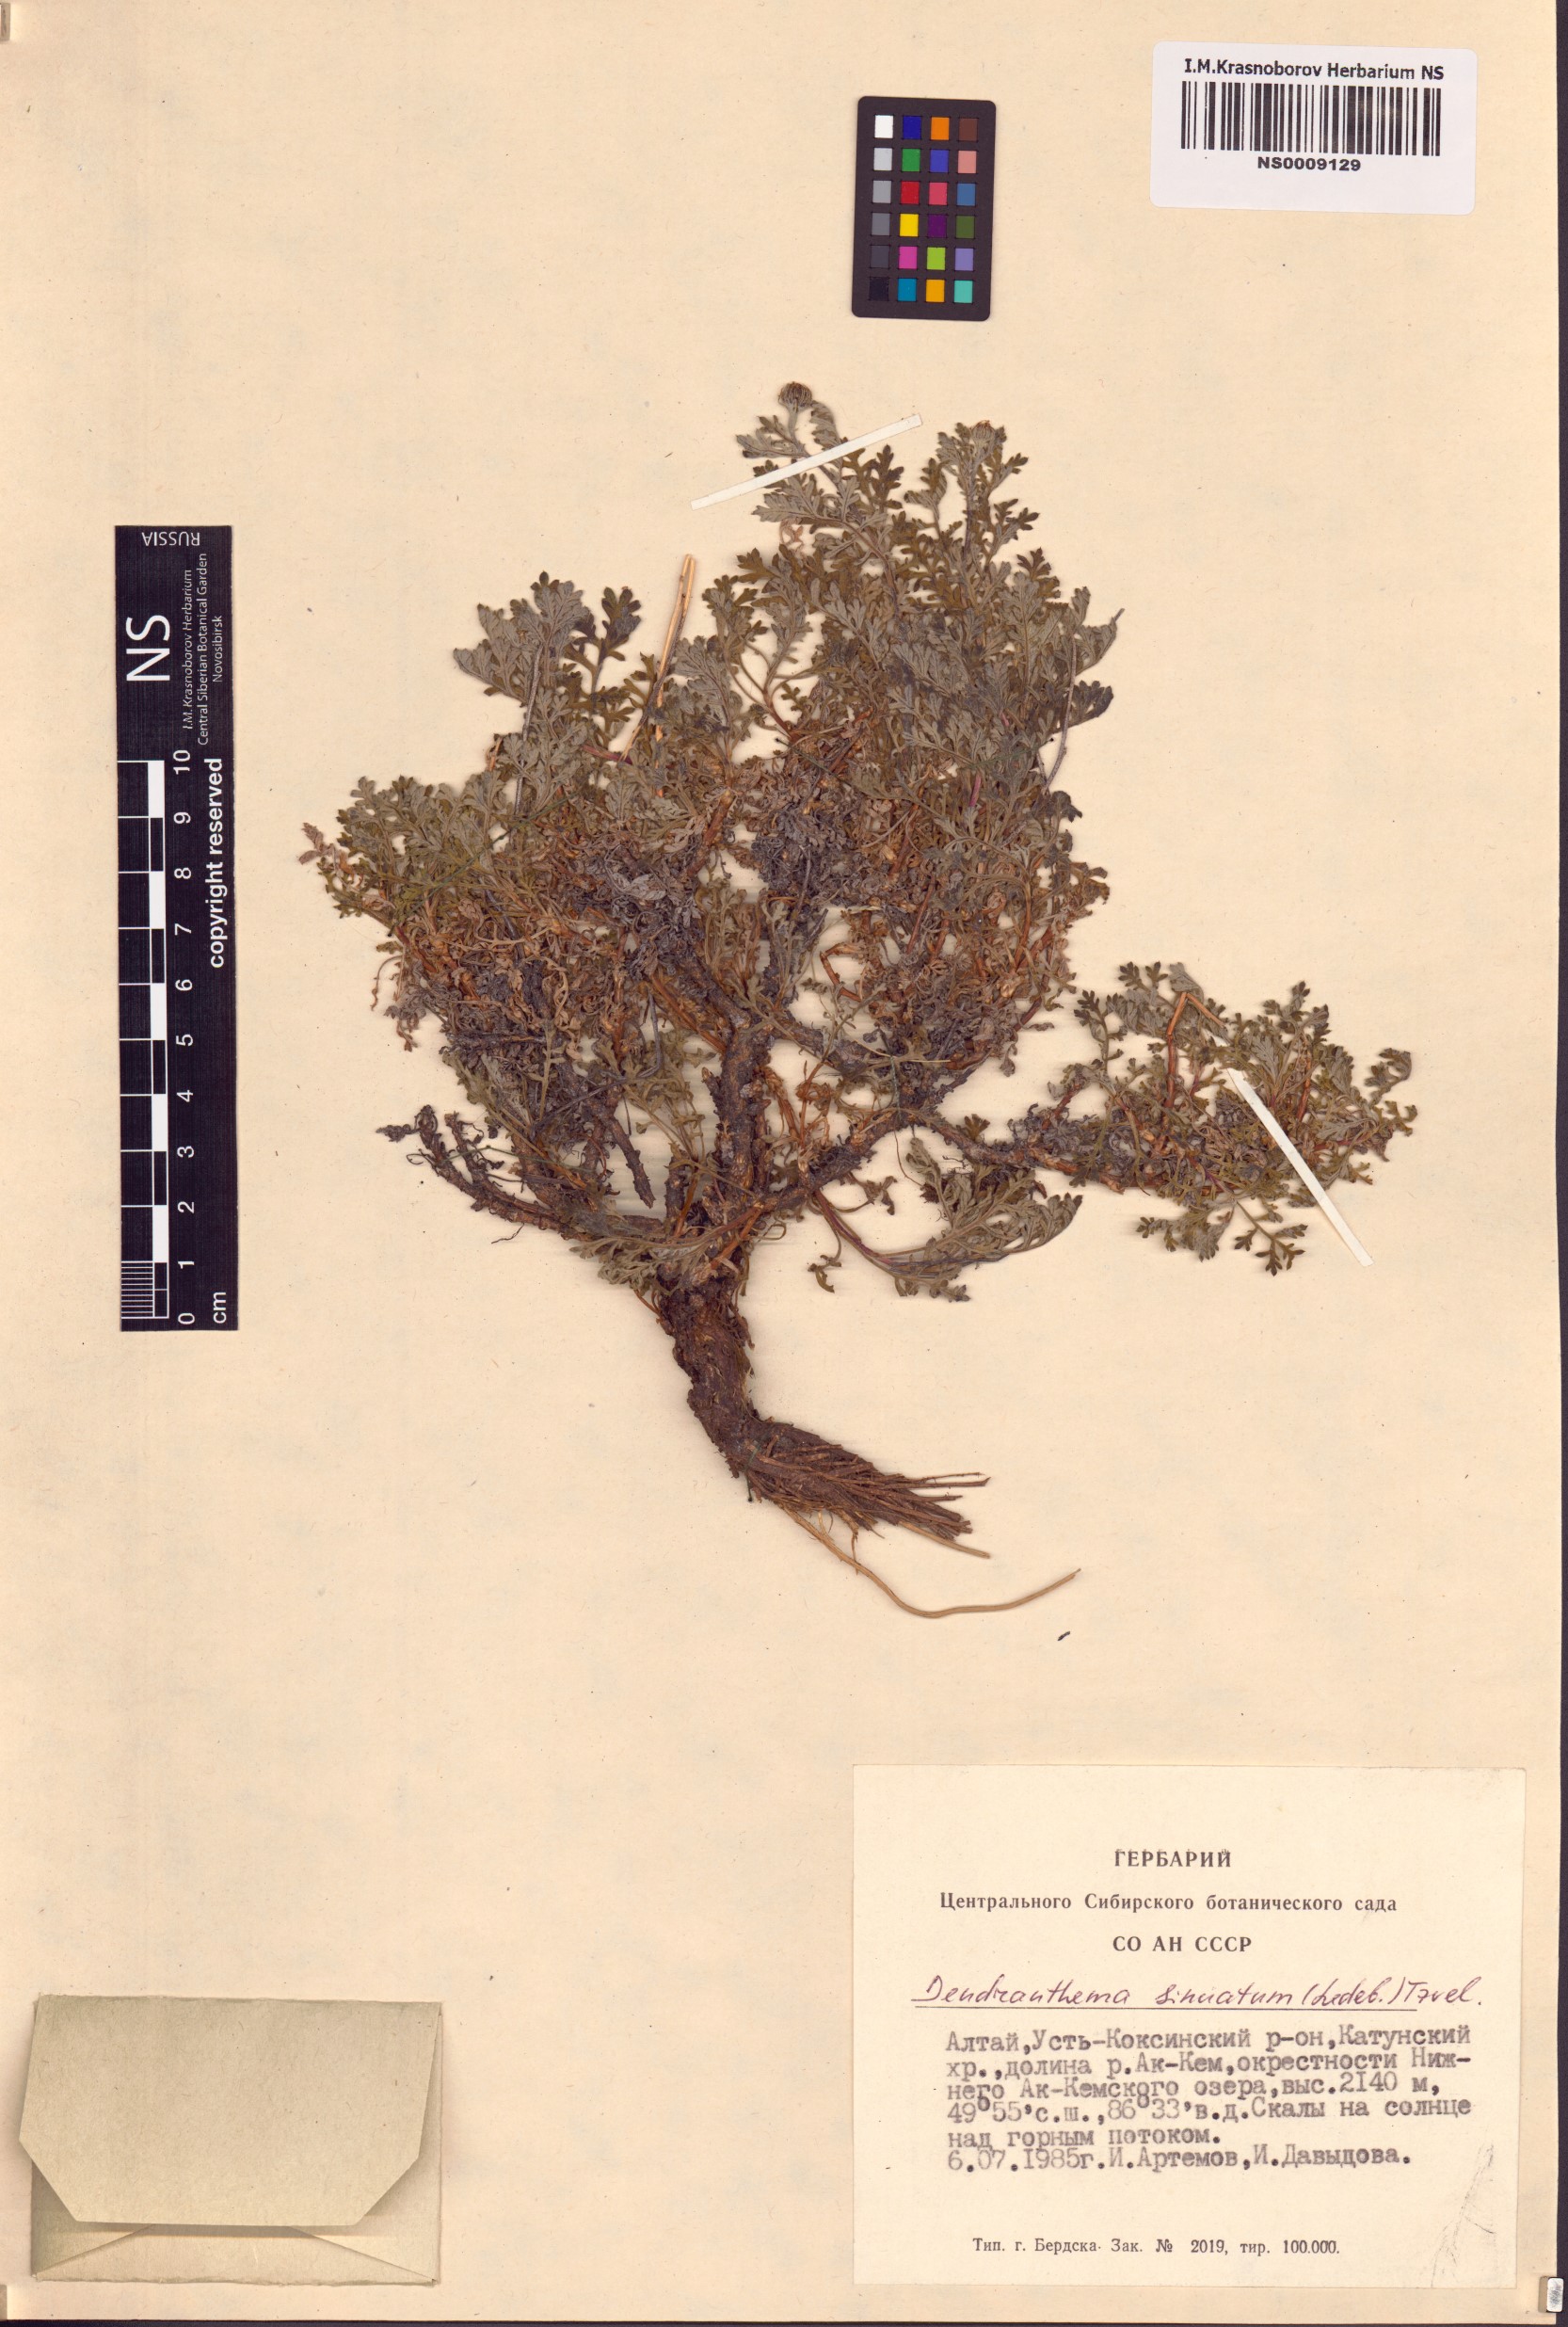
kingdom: Plantae
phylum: Tracheophyta
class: Magnoliopsida
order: Asterales
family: Asteraceae
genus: Chrysanthemum
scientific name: Chrysanthemum sinuatum
